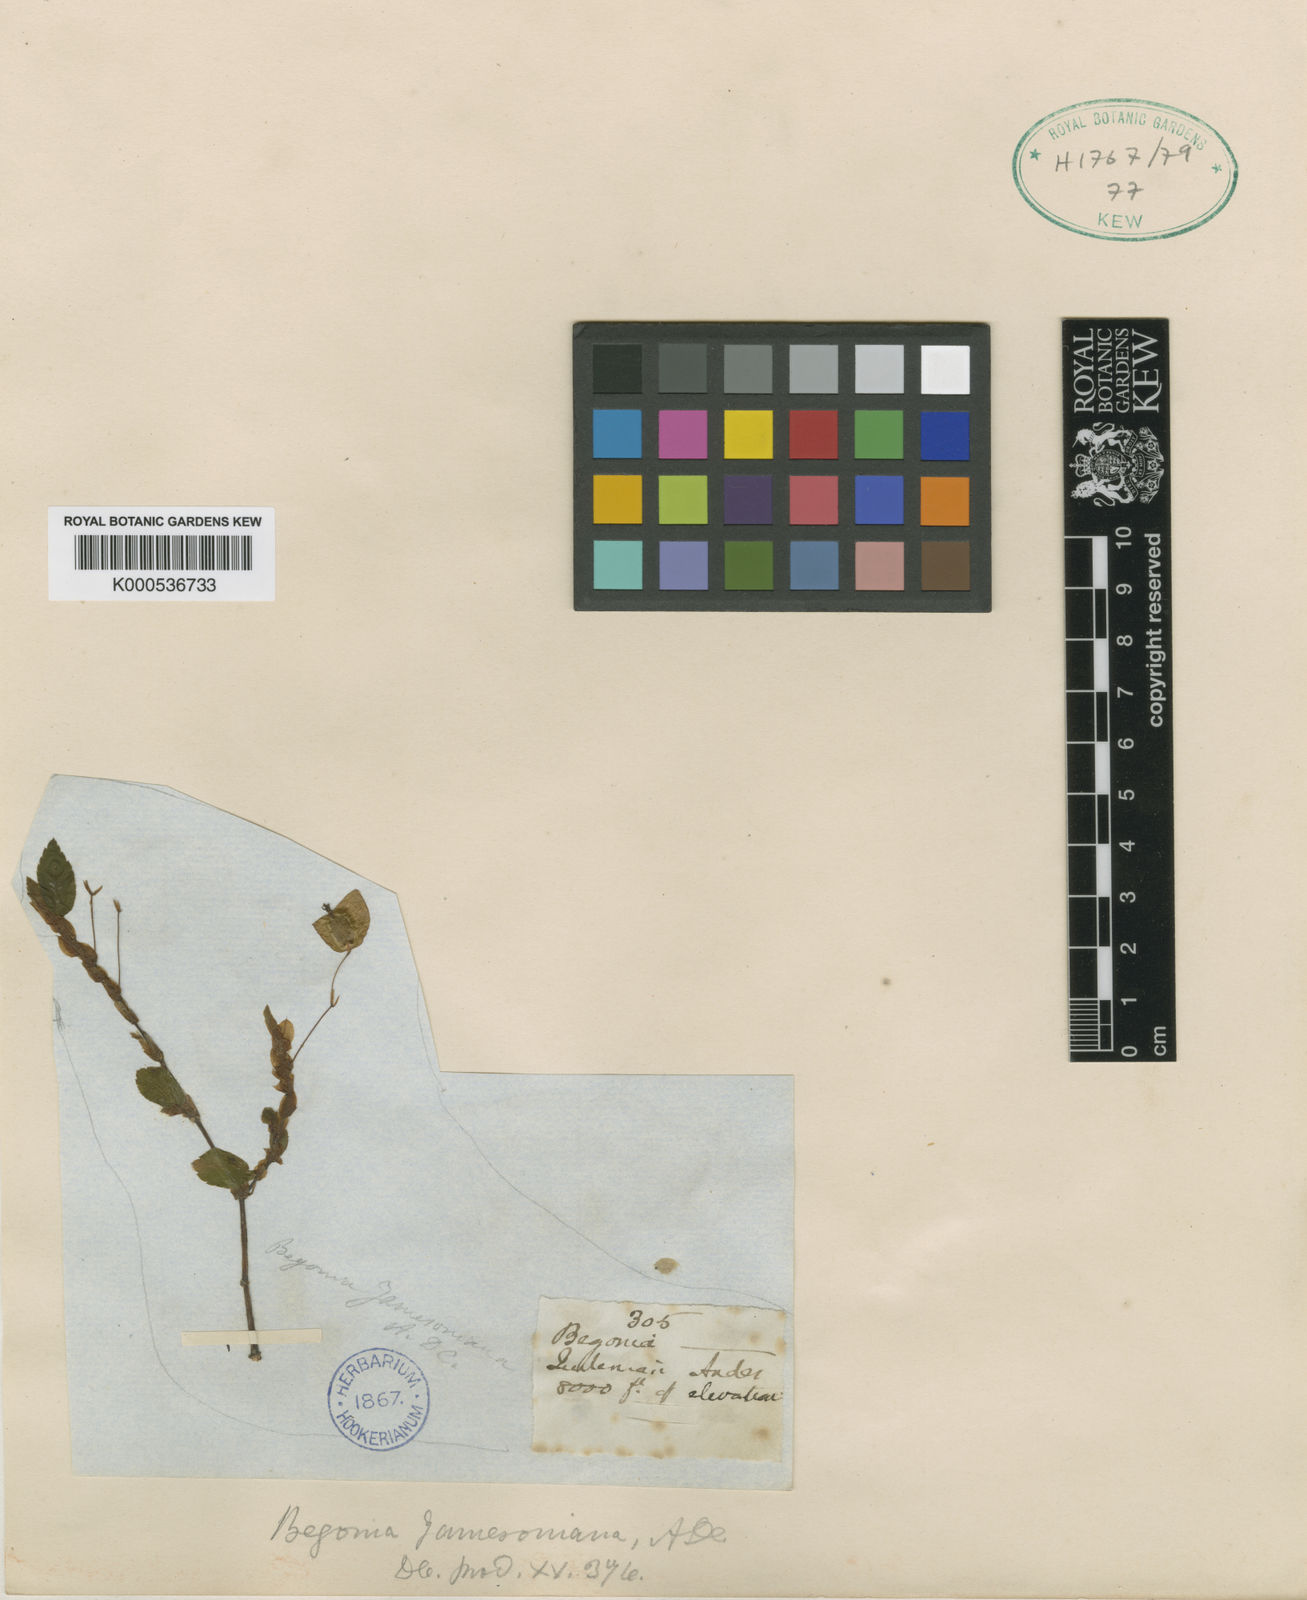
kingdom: Plantae
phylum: Tracheophyta
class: Magnoliopsida
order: Cucurbitales
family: Begoniaceae
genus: Begonia
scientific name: Begonia foliosa
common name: Fern begonia
